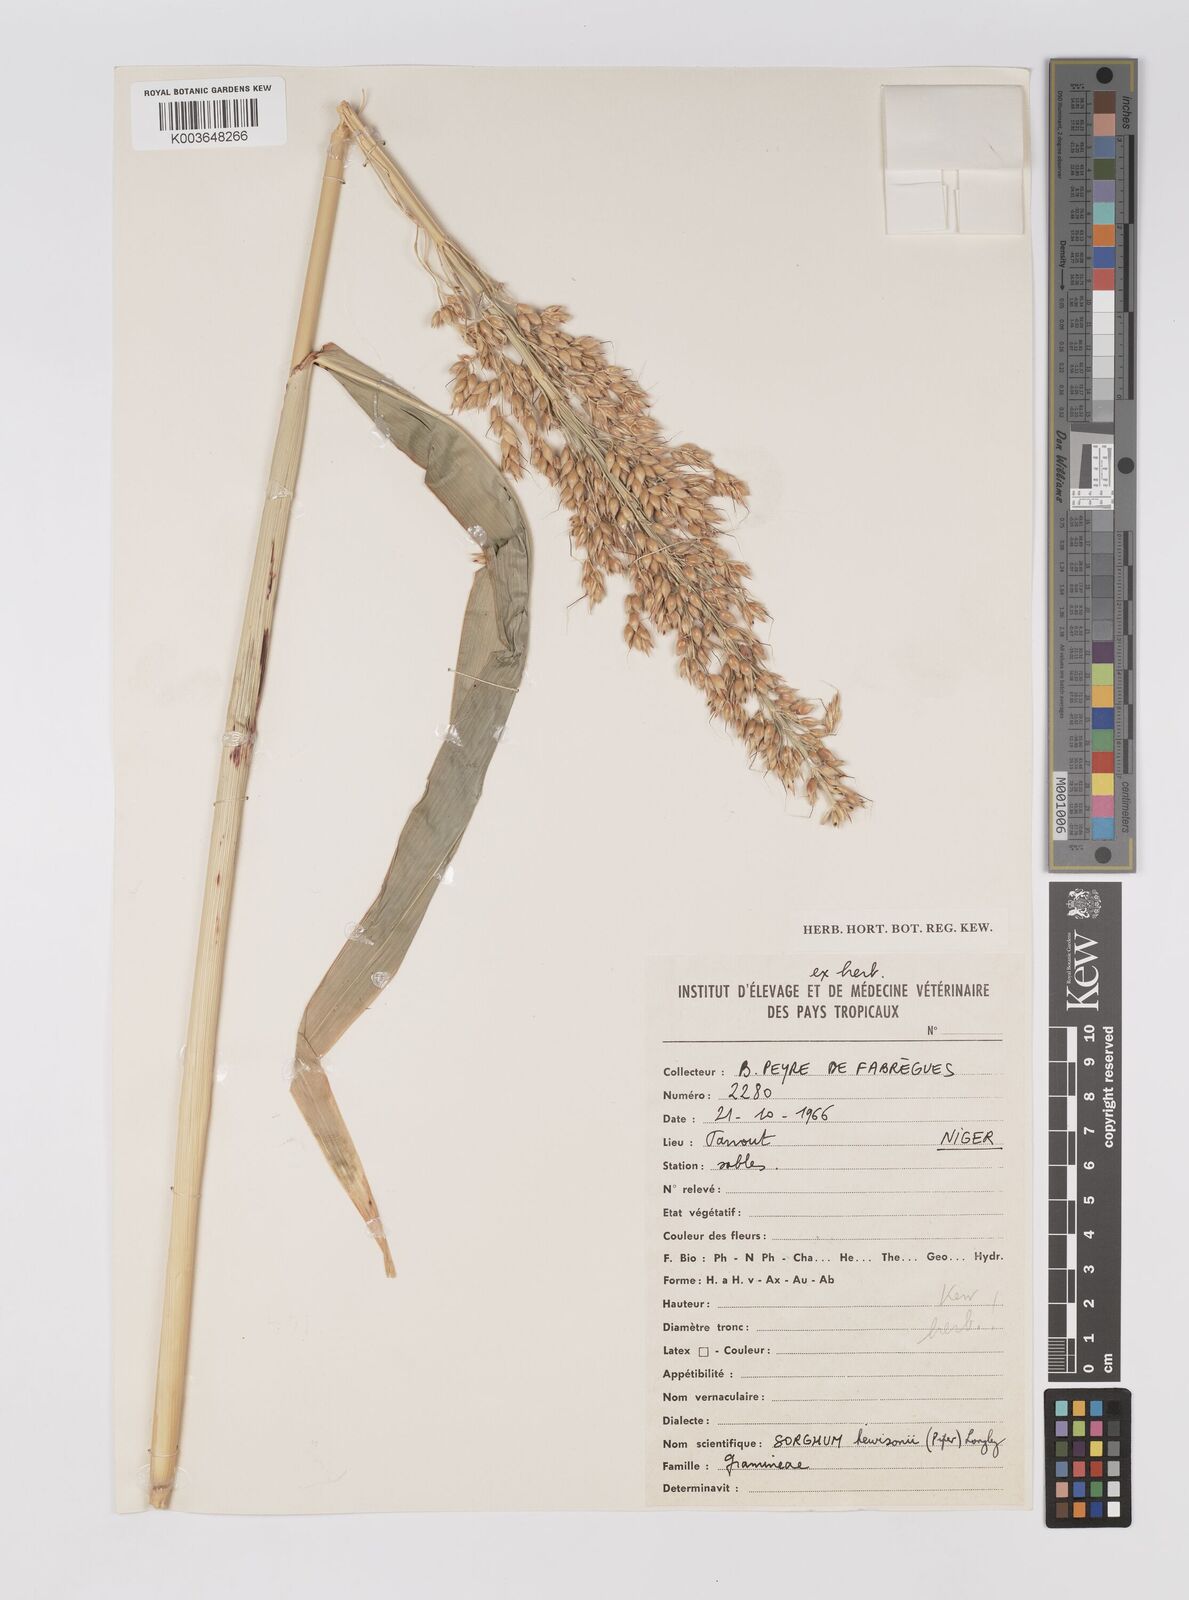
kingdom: Plantae
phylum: Tracheophyta
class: Liliopsida
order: Poales
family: Poaceae
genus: Sorghum
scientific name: Sorghum drummondii
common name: Sudangrass
